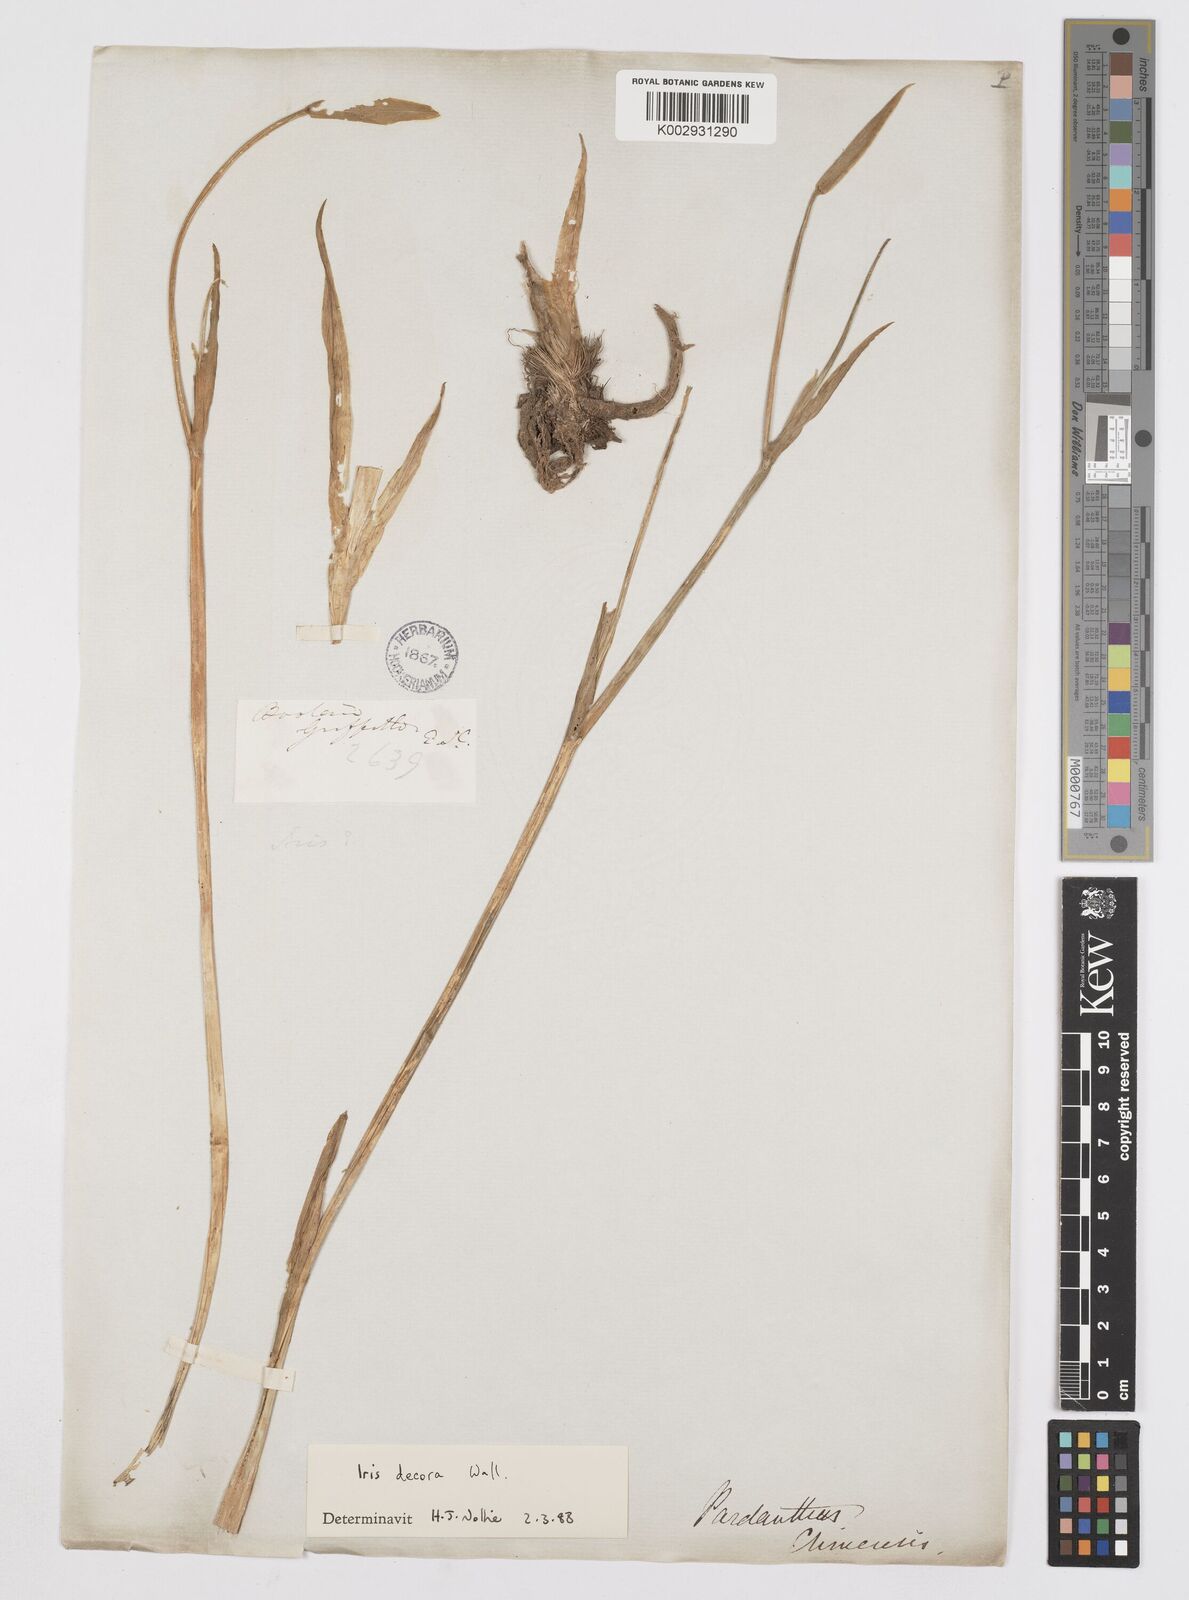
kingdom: Plantae
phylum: Tracheophyta
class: Liliopsida
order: Asparagales
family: Iridaceae
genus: Iris
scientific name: Iris decora
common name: Nepal iris
